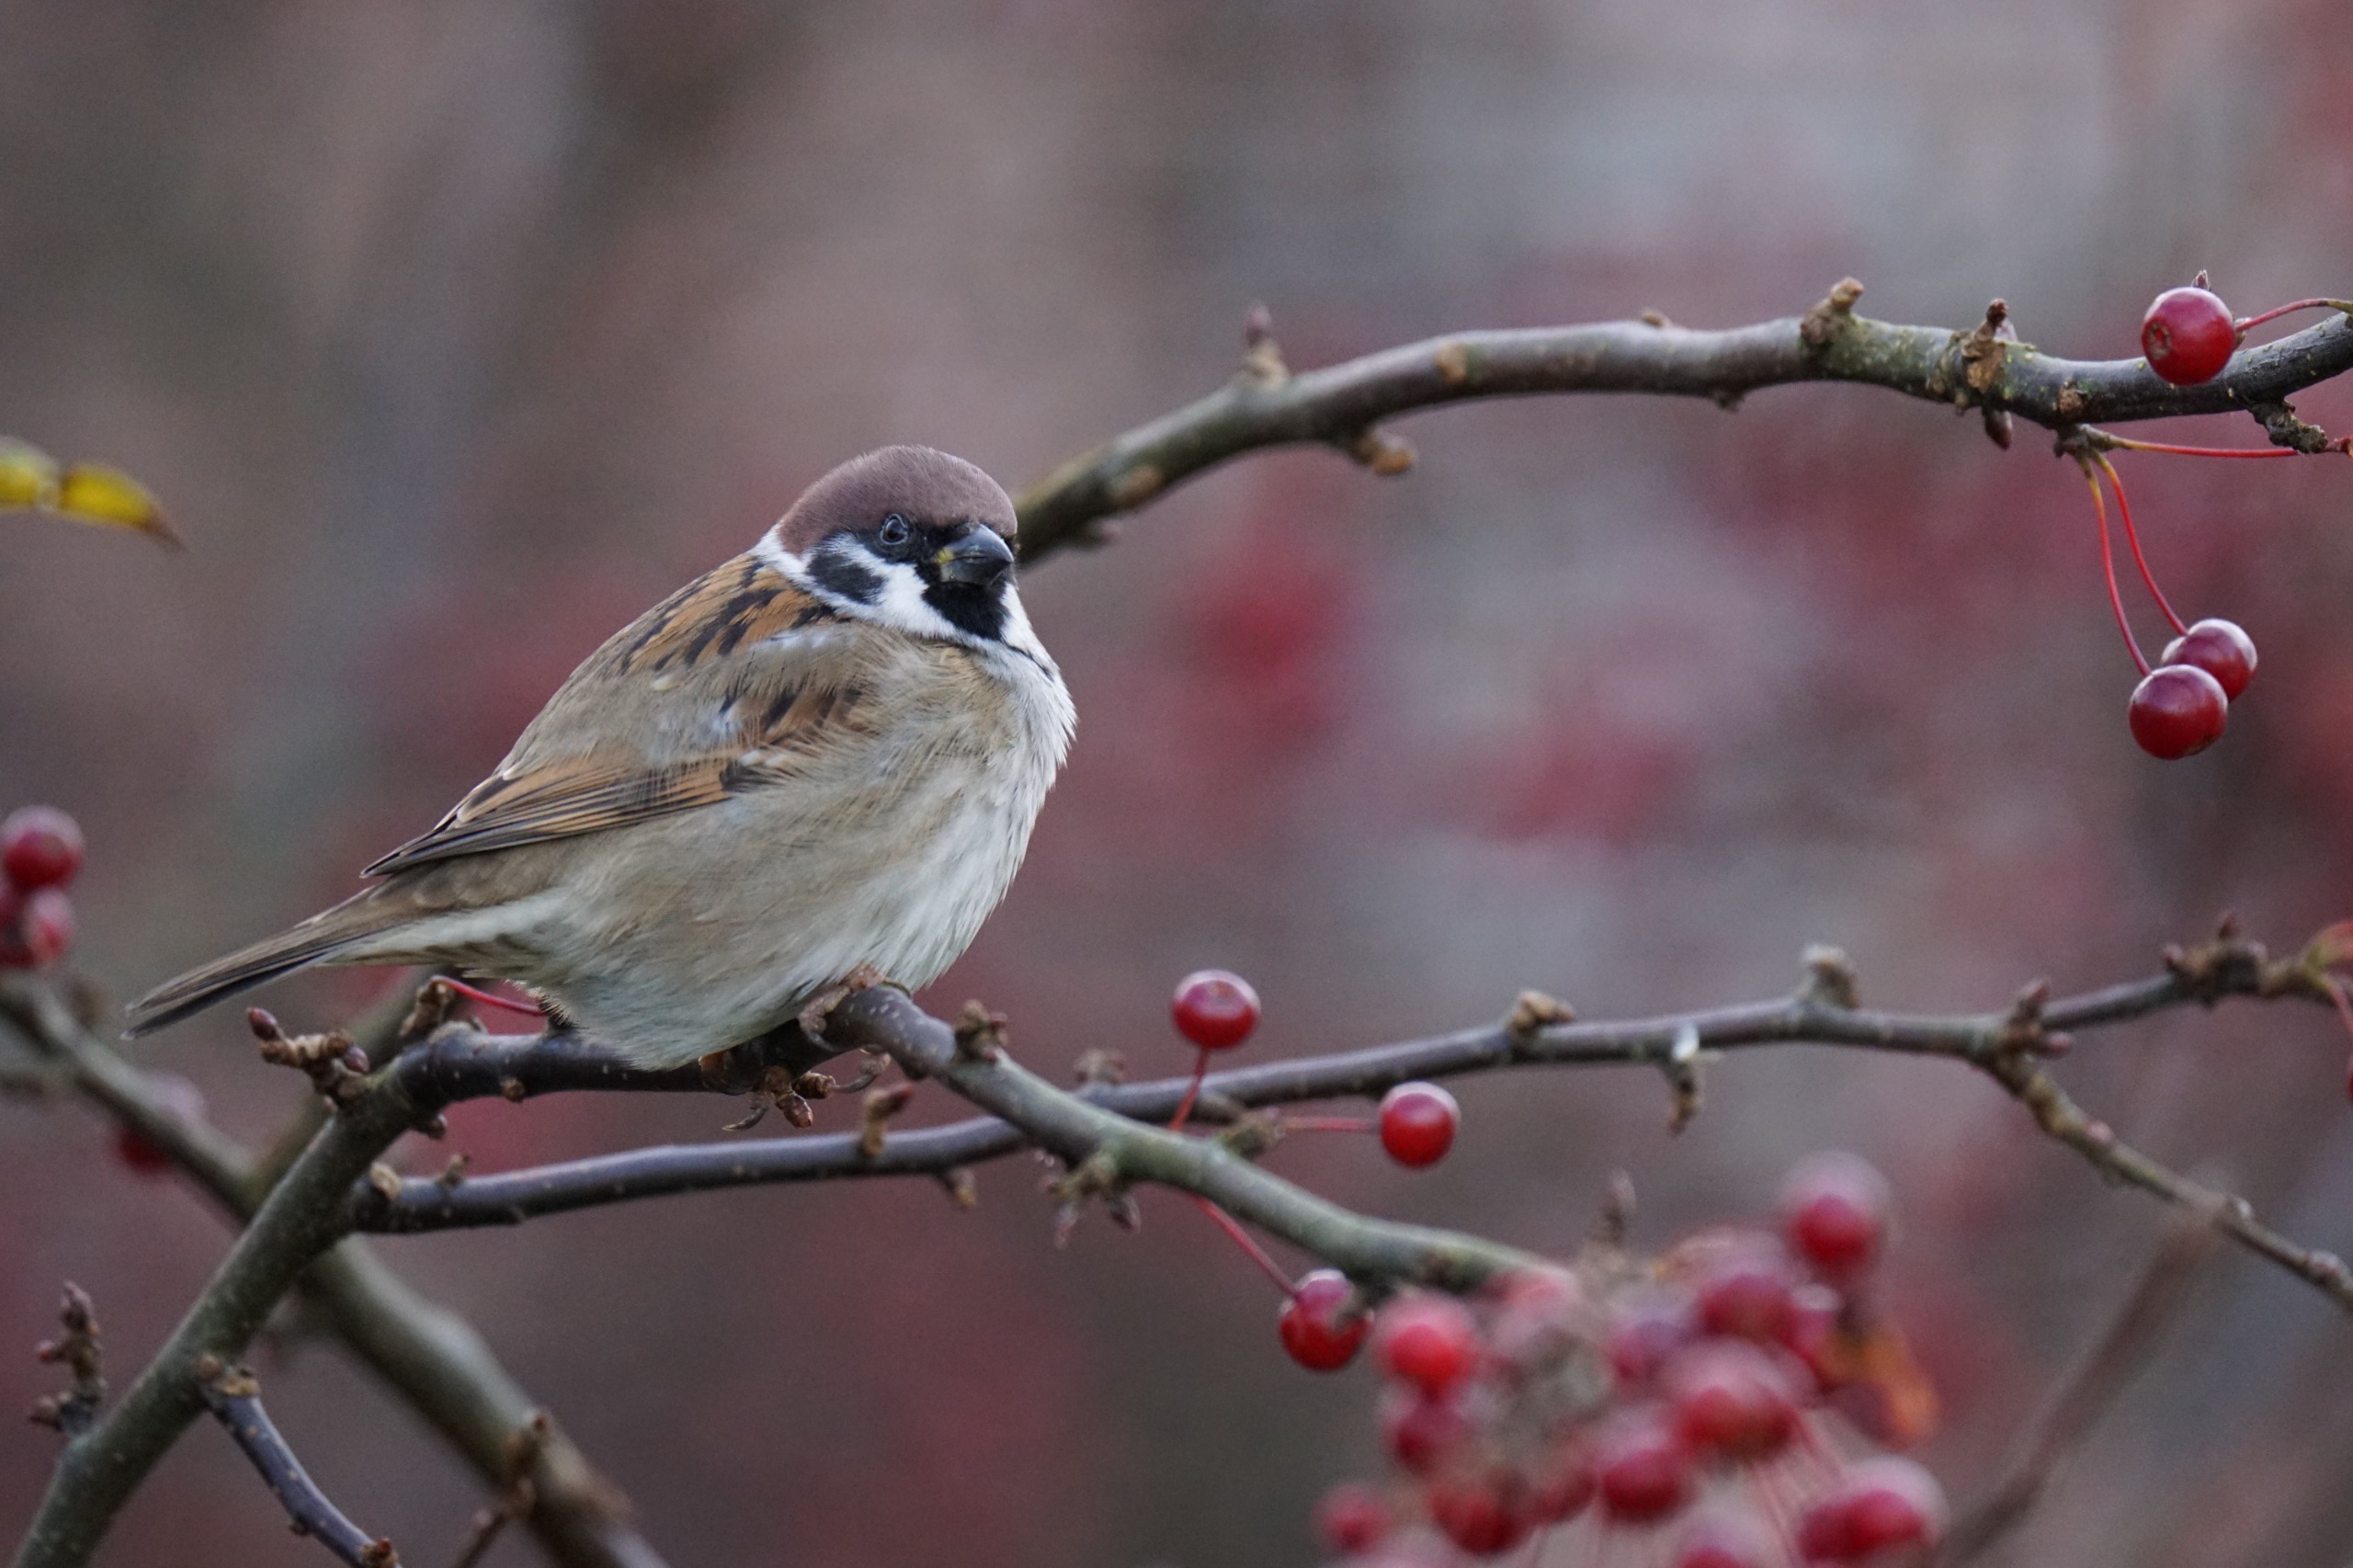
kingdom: Animalia
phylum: Chordata
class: Aves
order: Passeriformes
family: Passeridae
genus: Passer
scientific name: Passer montanus
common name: Skovspurv
